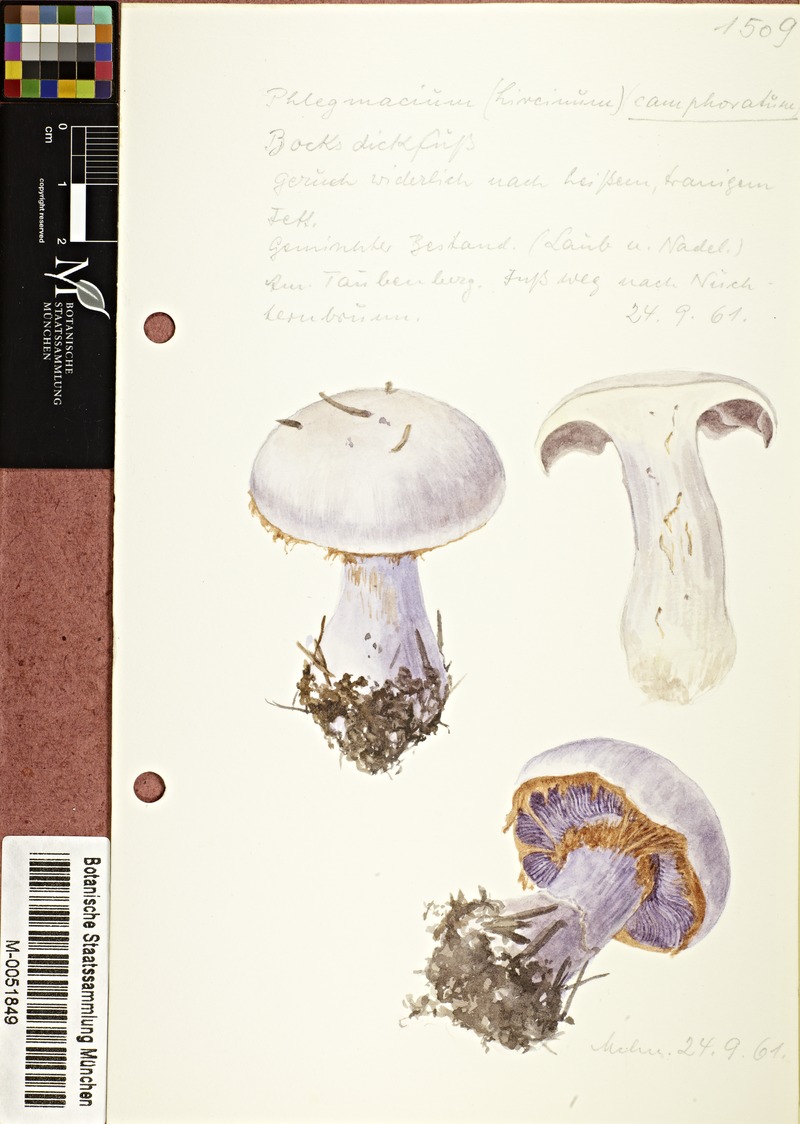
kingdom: Fungi
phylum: Basidiomycota
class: Agaricomycetes
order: Agaricales
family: Cortinariaceae
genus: Cortinarius
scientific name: Cortinarius camphoratus
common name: Goatcheese webcap
